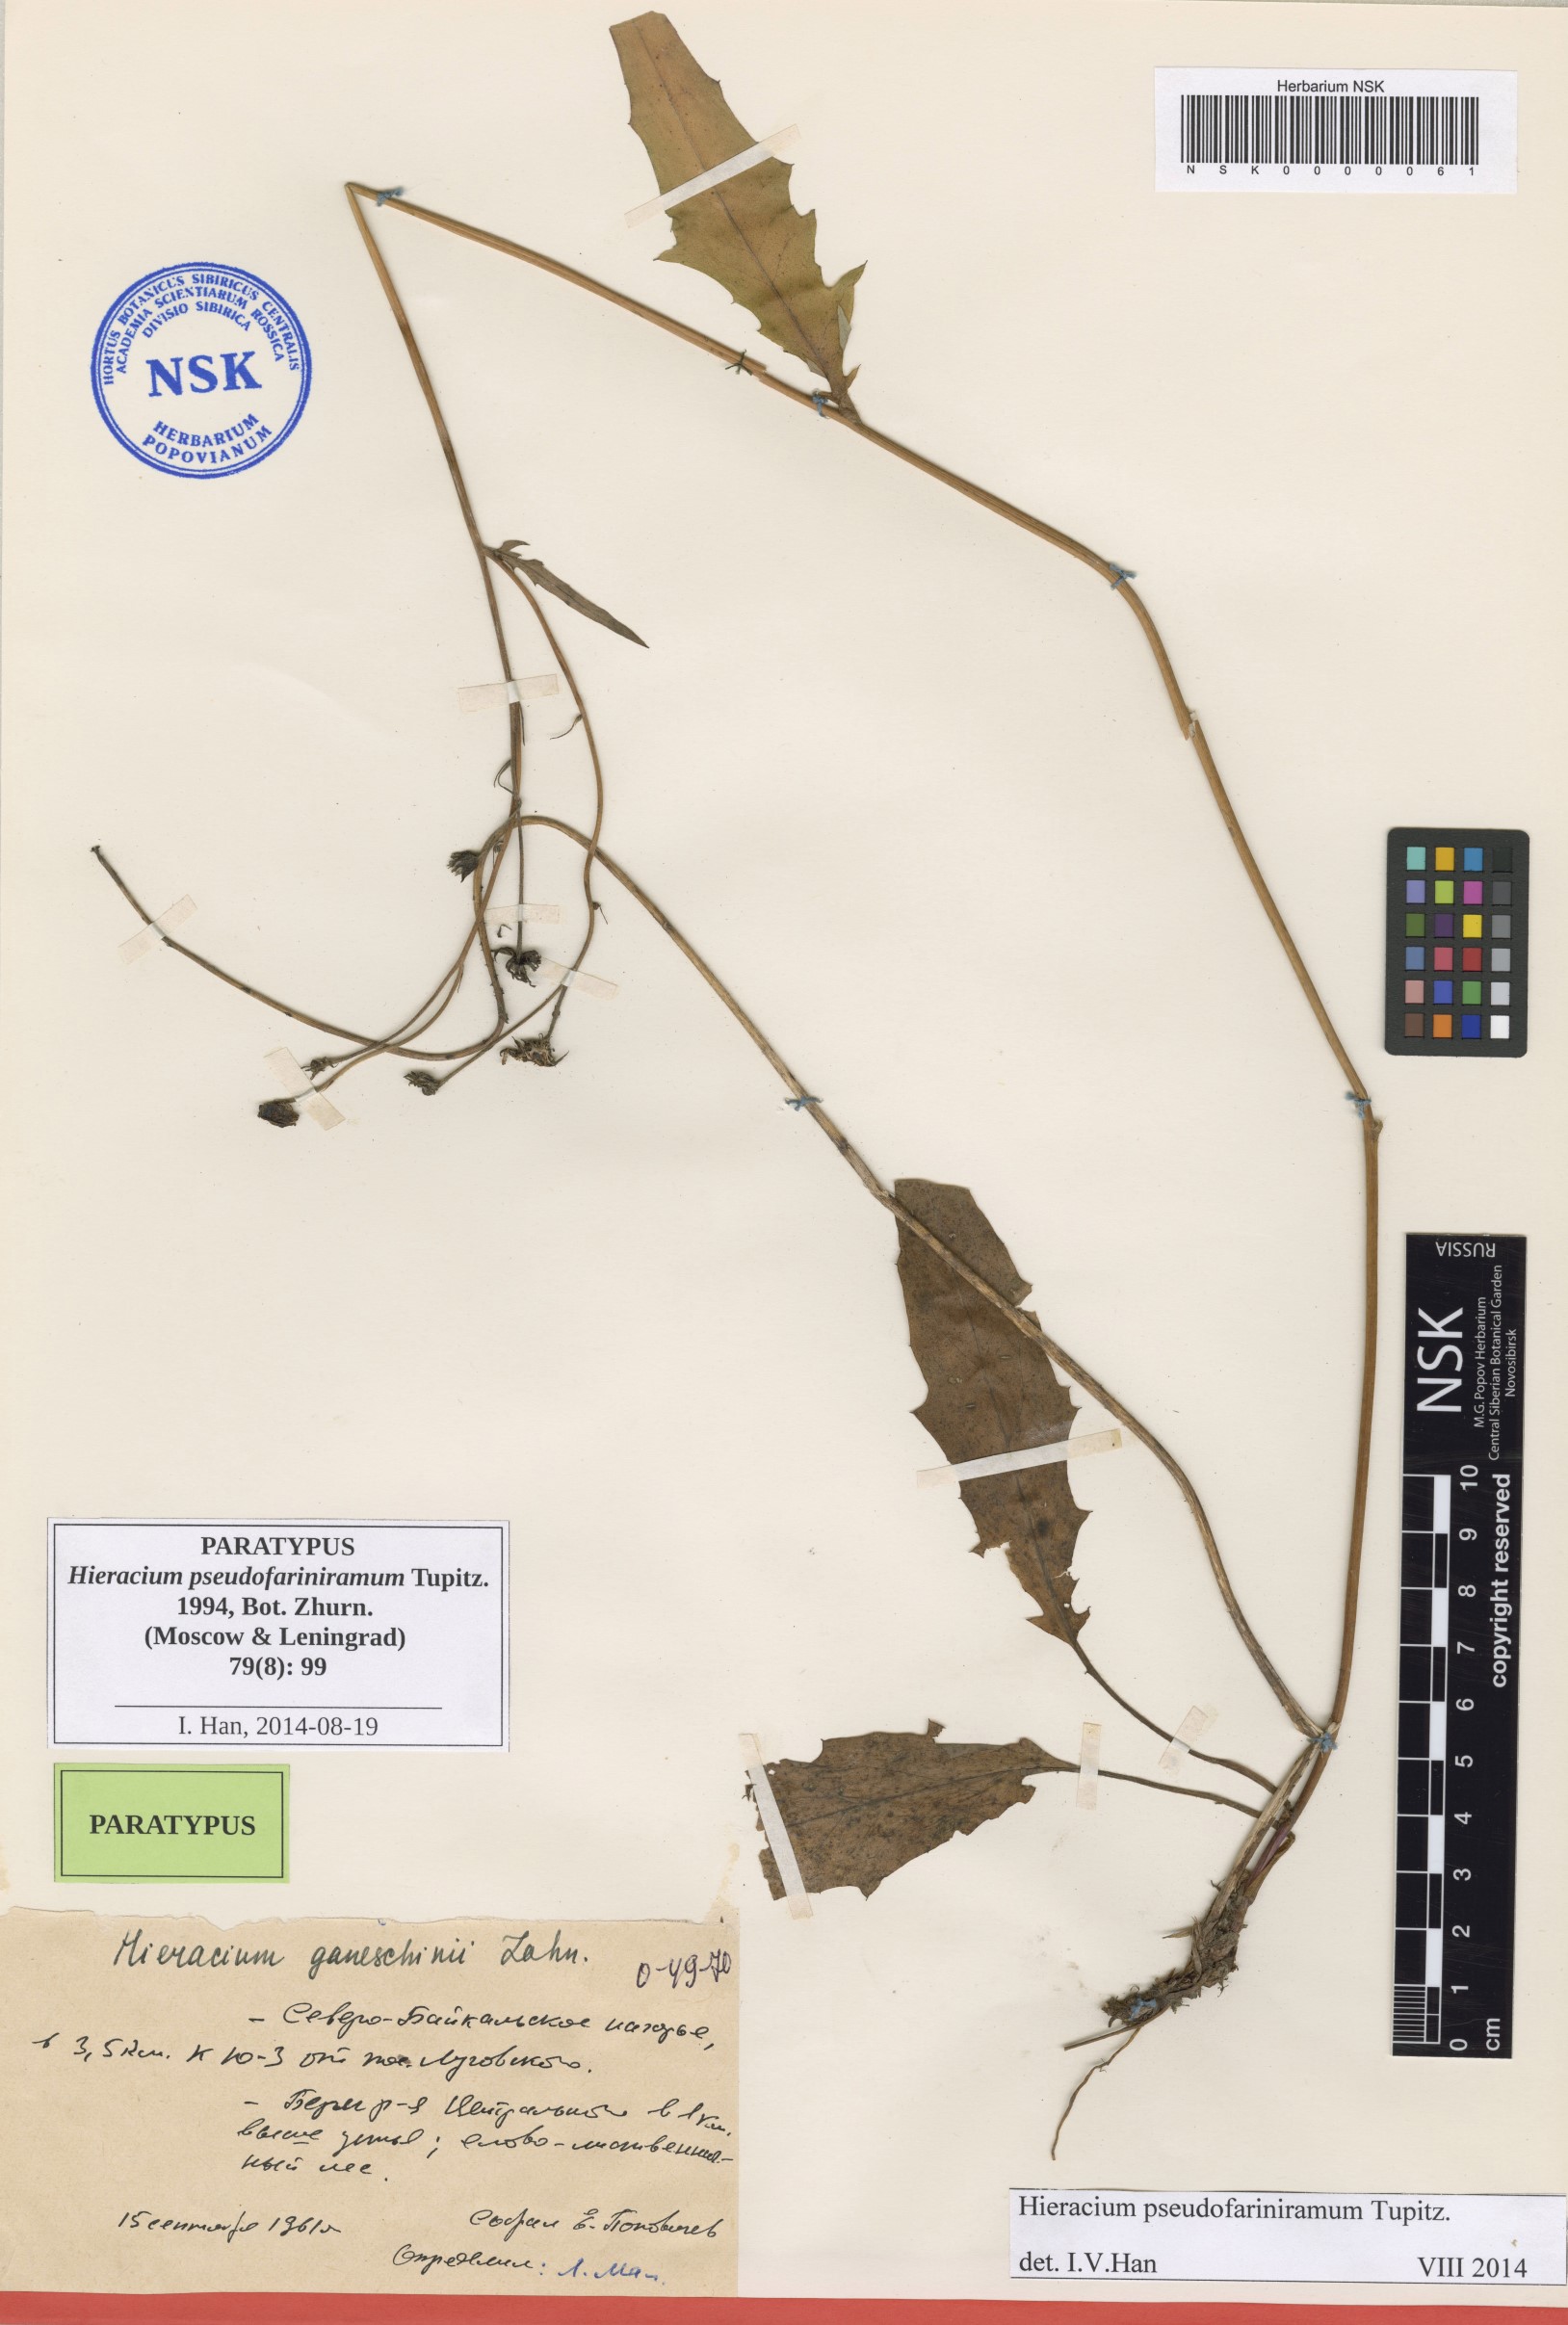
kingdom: Plantae
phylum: Tracheophyta
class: Magnoliopsida
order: Asterales
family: Asteraceae
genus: Hieracium
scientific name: Hieracium pseudofariniramum
